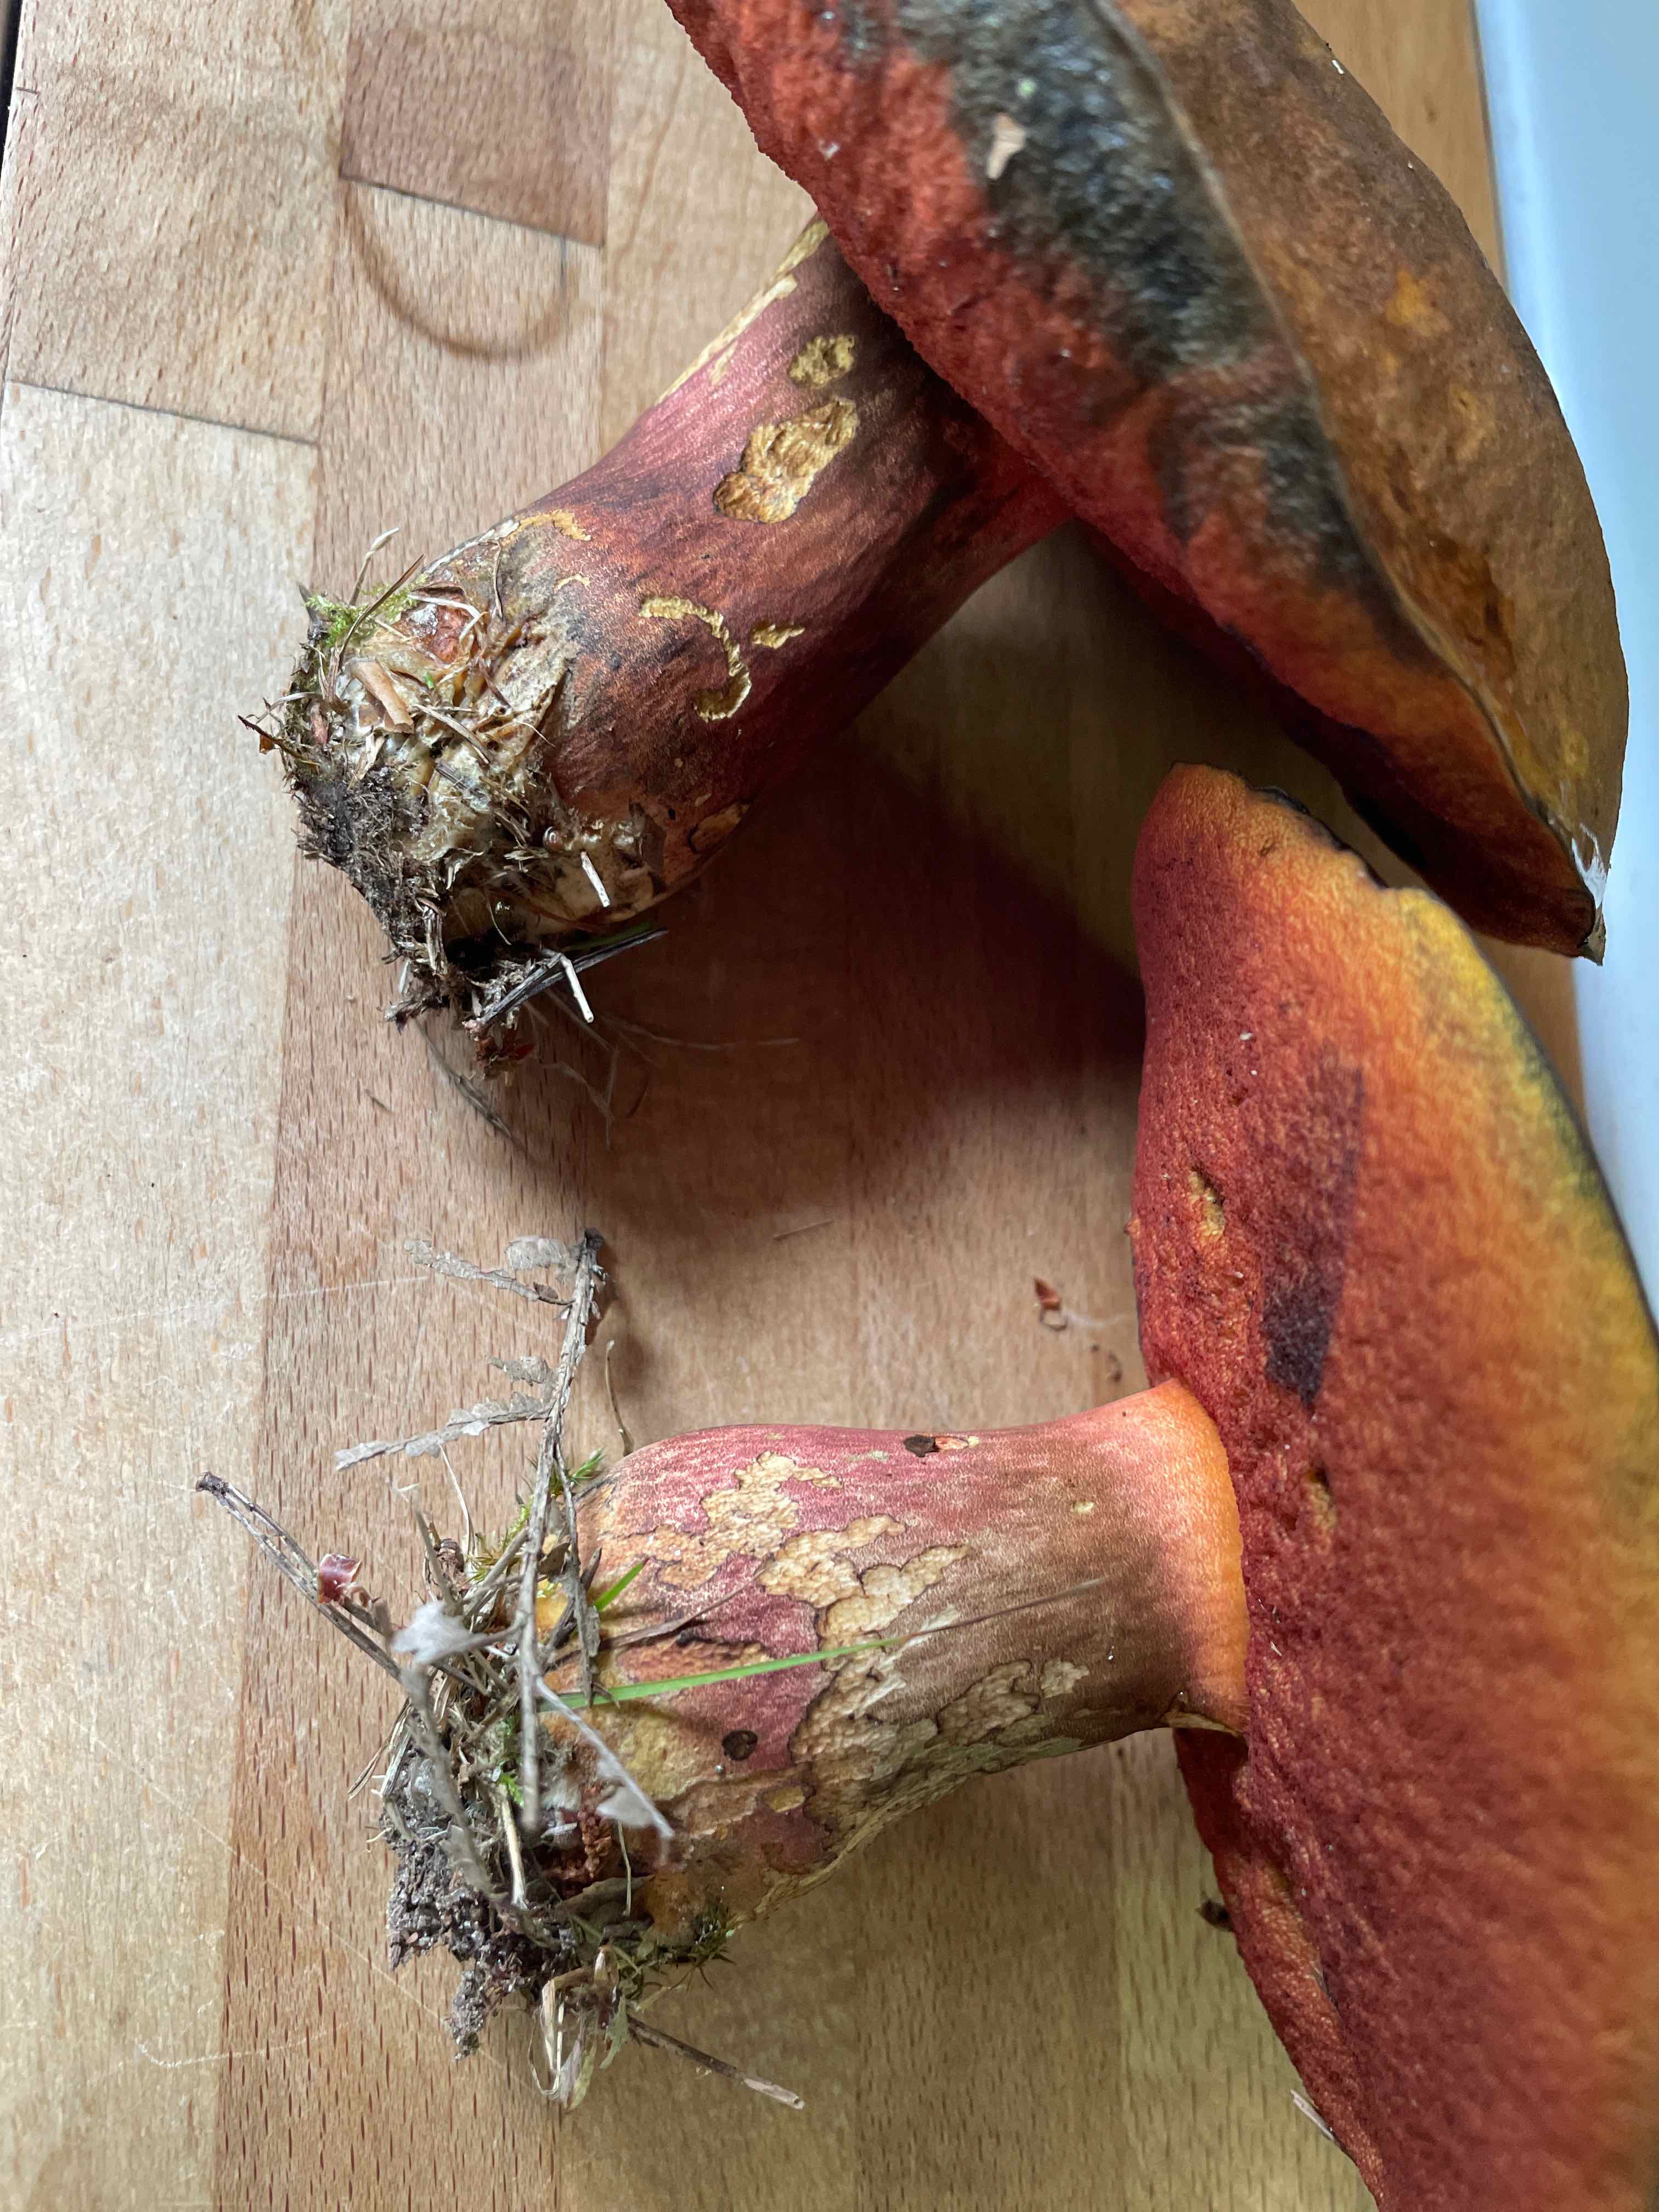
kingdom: Fungi
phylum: Basidiomycota
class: Agaricomycetes
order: Boletales
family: Boletaceae
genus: Neoboletus
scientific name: Neoboletus erythropus
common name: punktstokket indigorørhat
